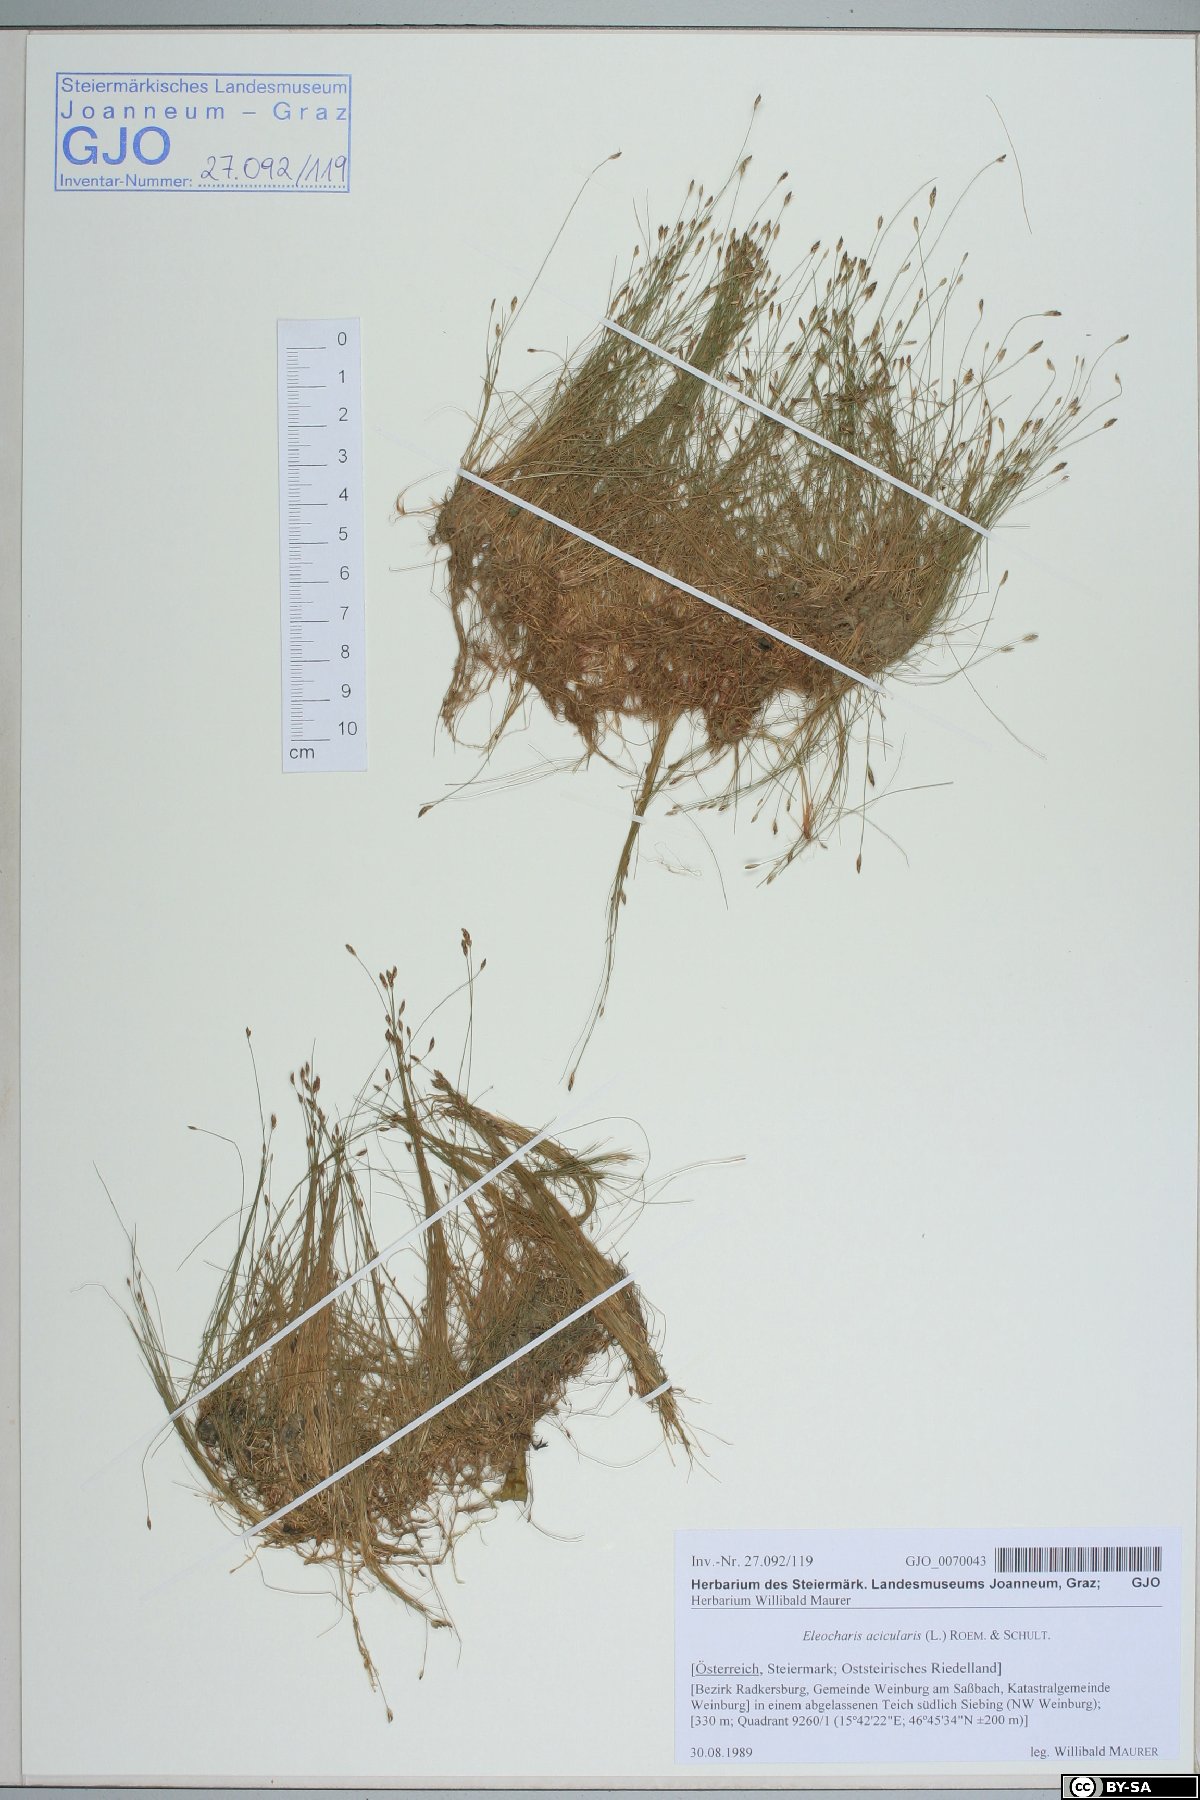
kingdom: Plantae
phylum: Tracheophyta
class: Liliopsida
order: Poales
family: Cyperaceae
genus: Eleocharis
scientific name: Eleocharis acicularis
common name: Needle spike-rush
